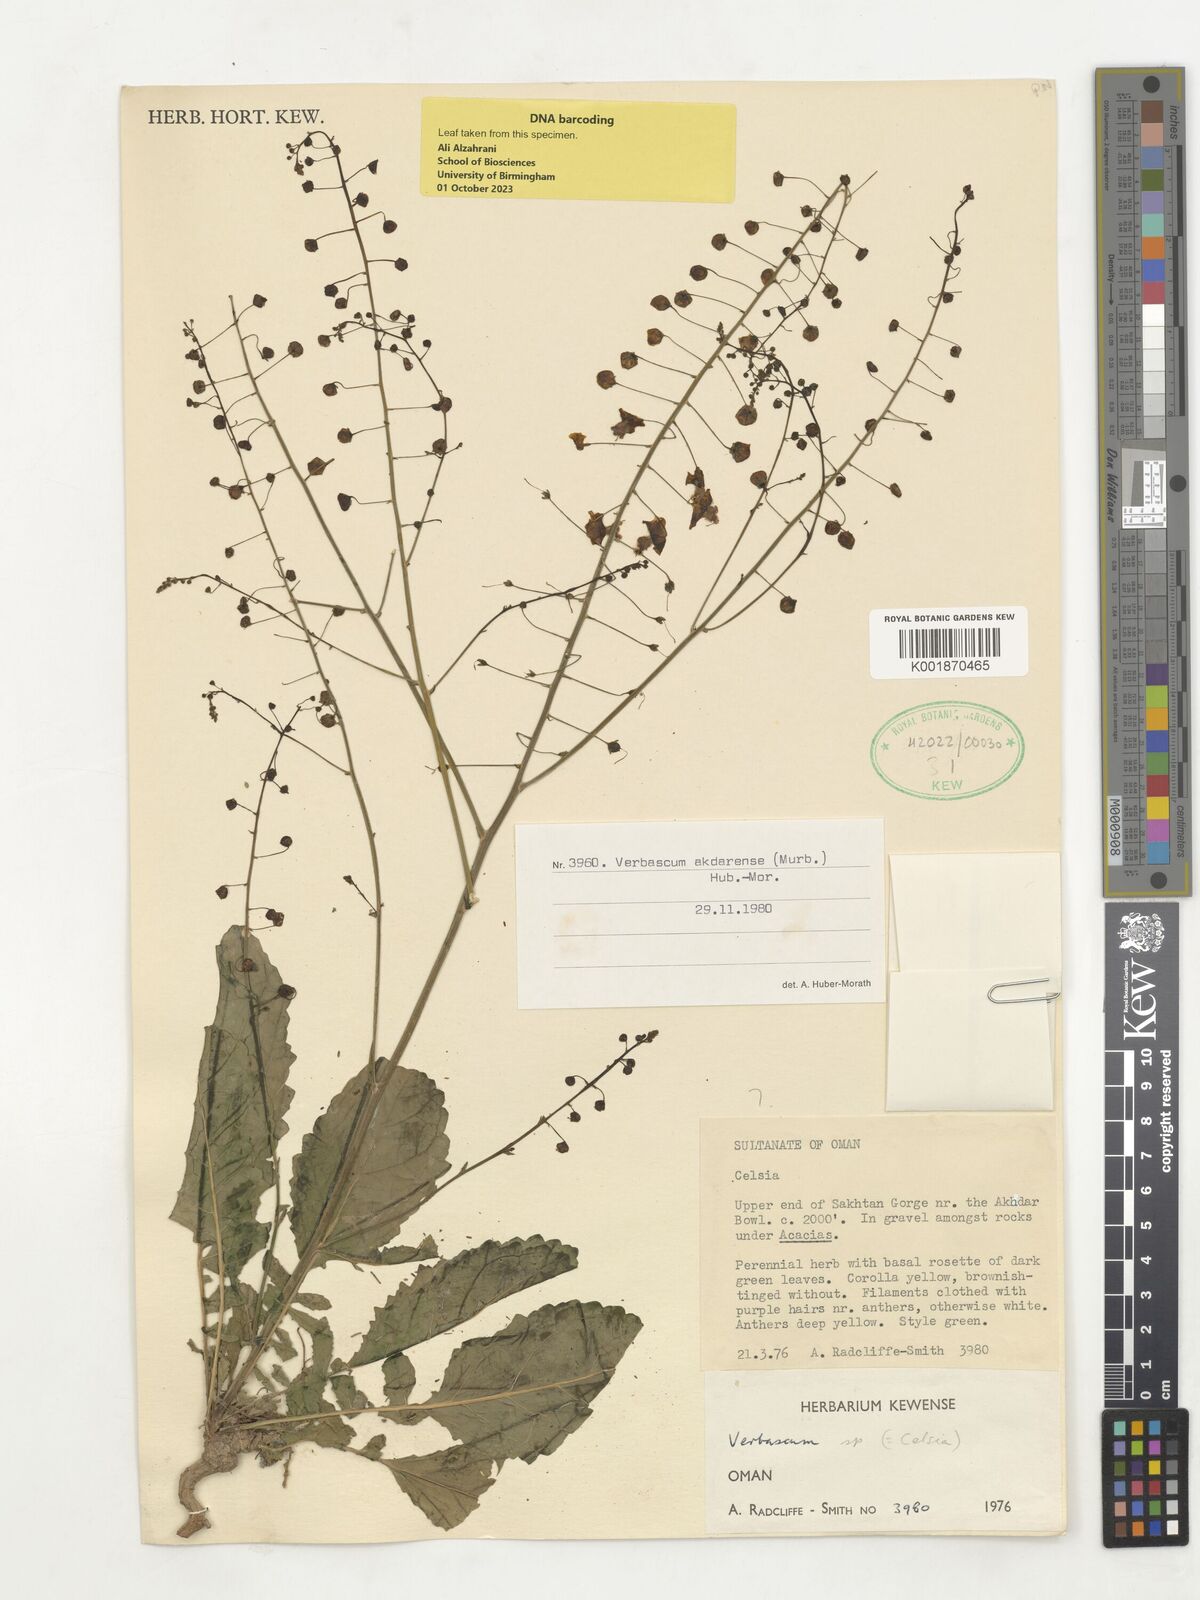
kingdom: Plantae
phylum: Tracheophyta
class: Magnoliopsida
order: Lamiales
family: Scrophulariaceae
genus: Verbascum
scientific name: Verbascum akdarense
